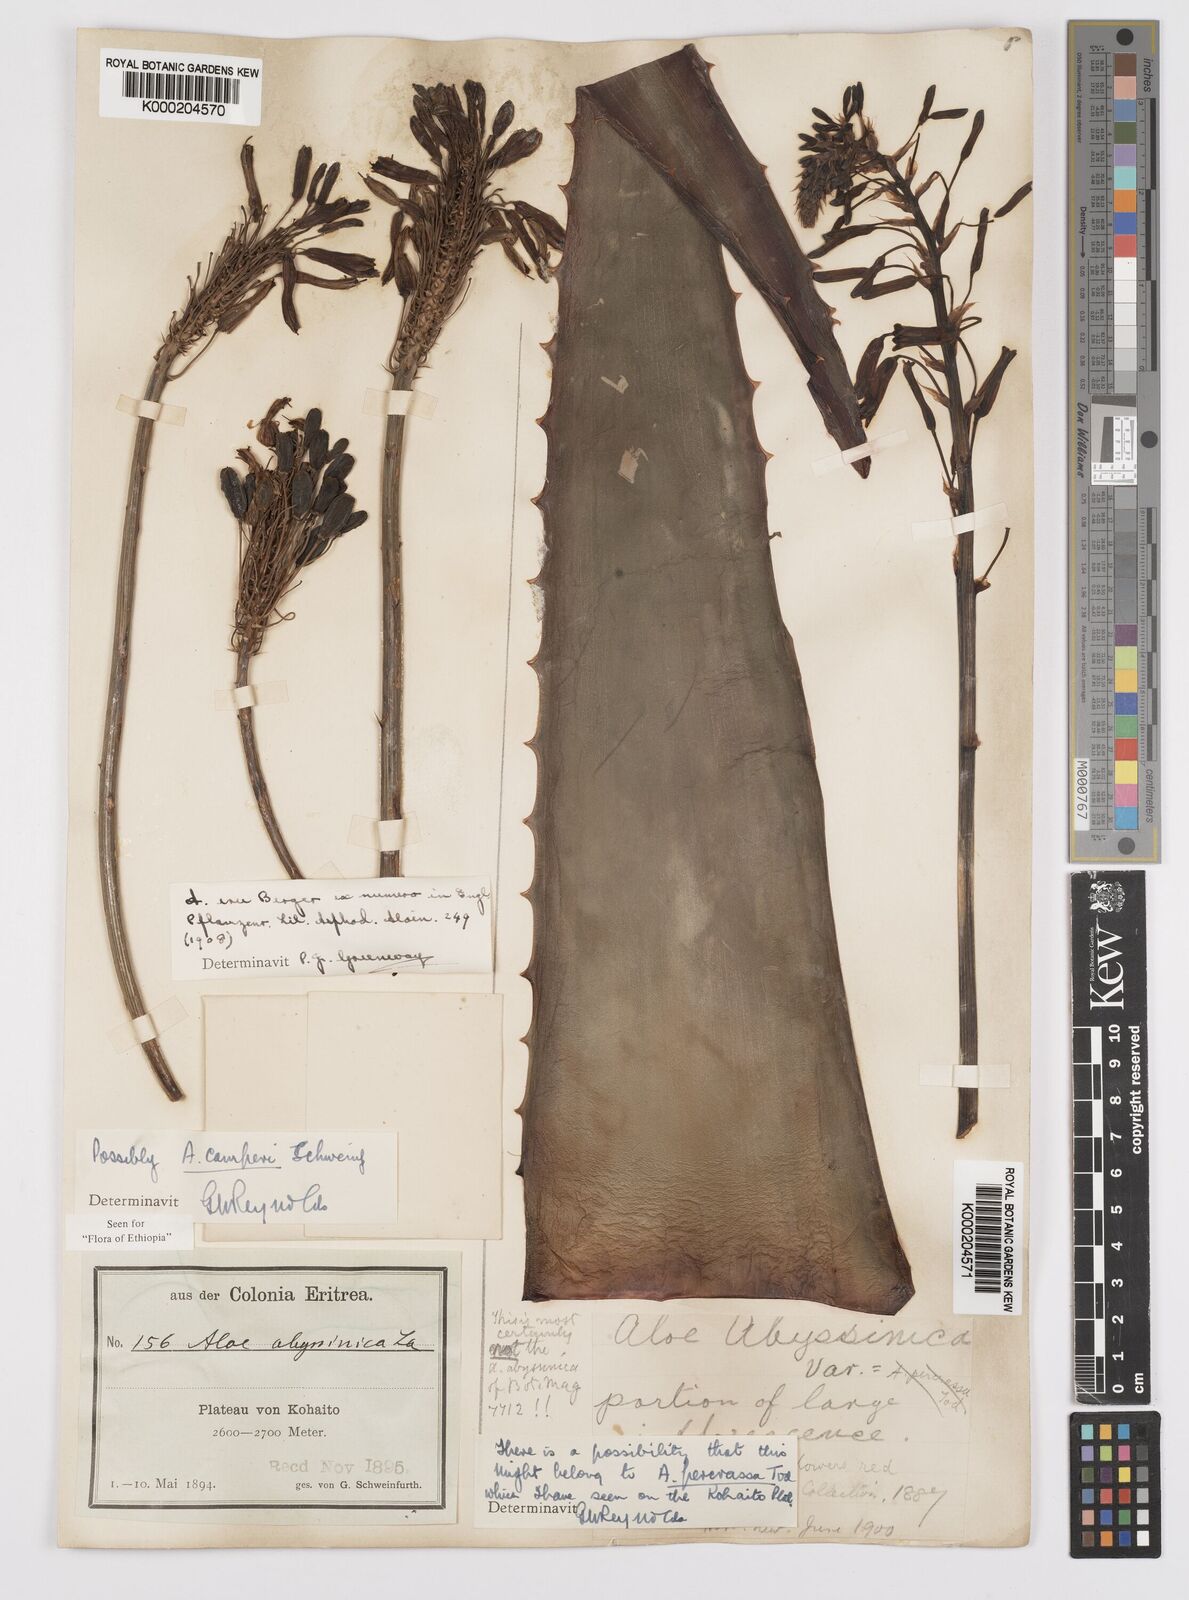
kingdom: Plantae
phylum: Tracheophyta
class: Liliopsida
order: Asparagales
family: Asphodelaceae
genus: Aloe
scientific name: Aloe camperi
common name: Camper's aloe
